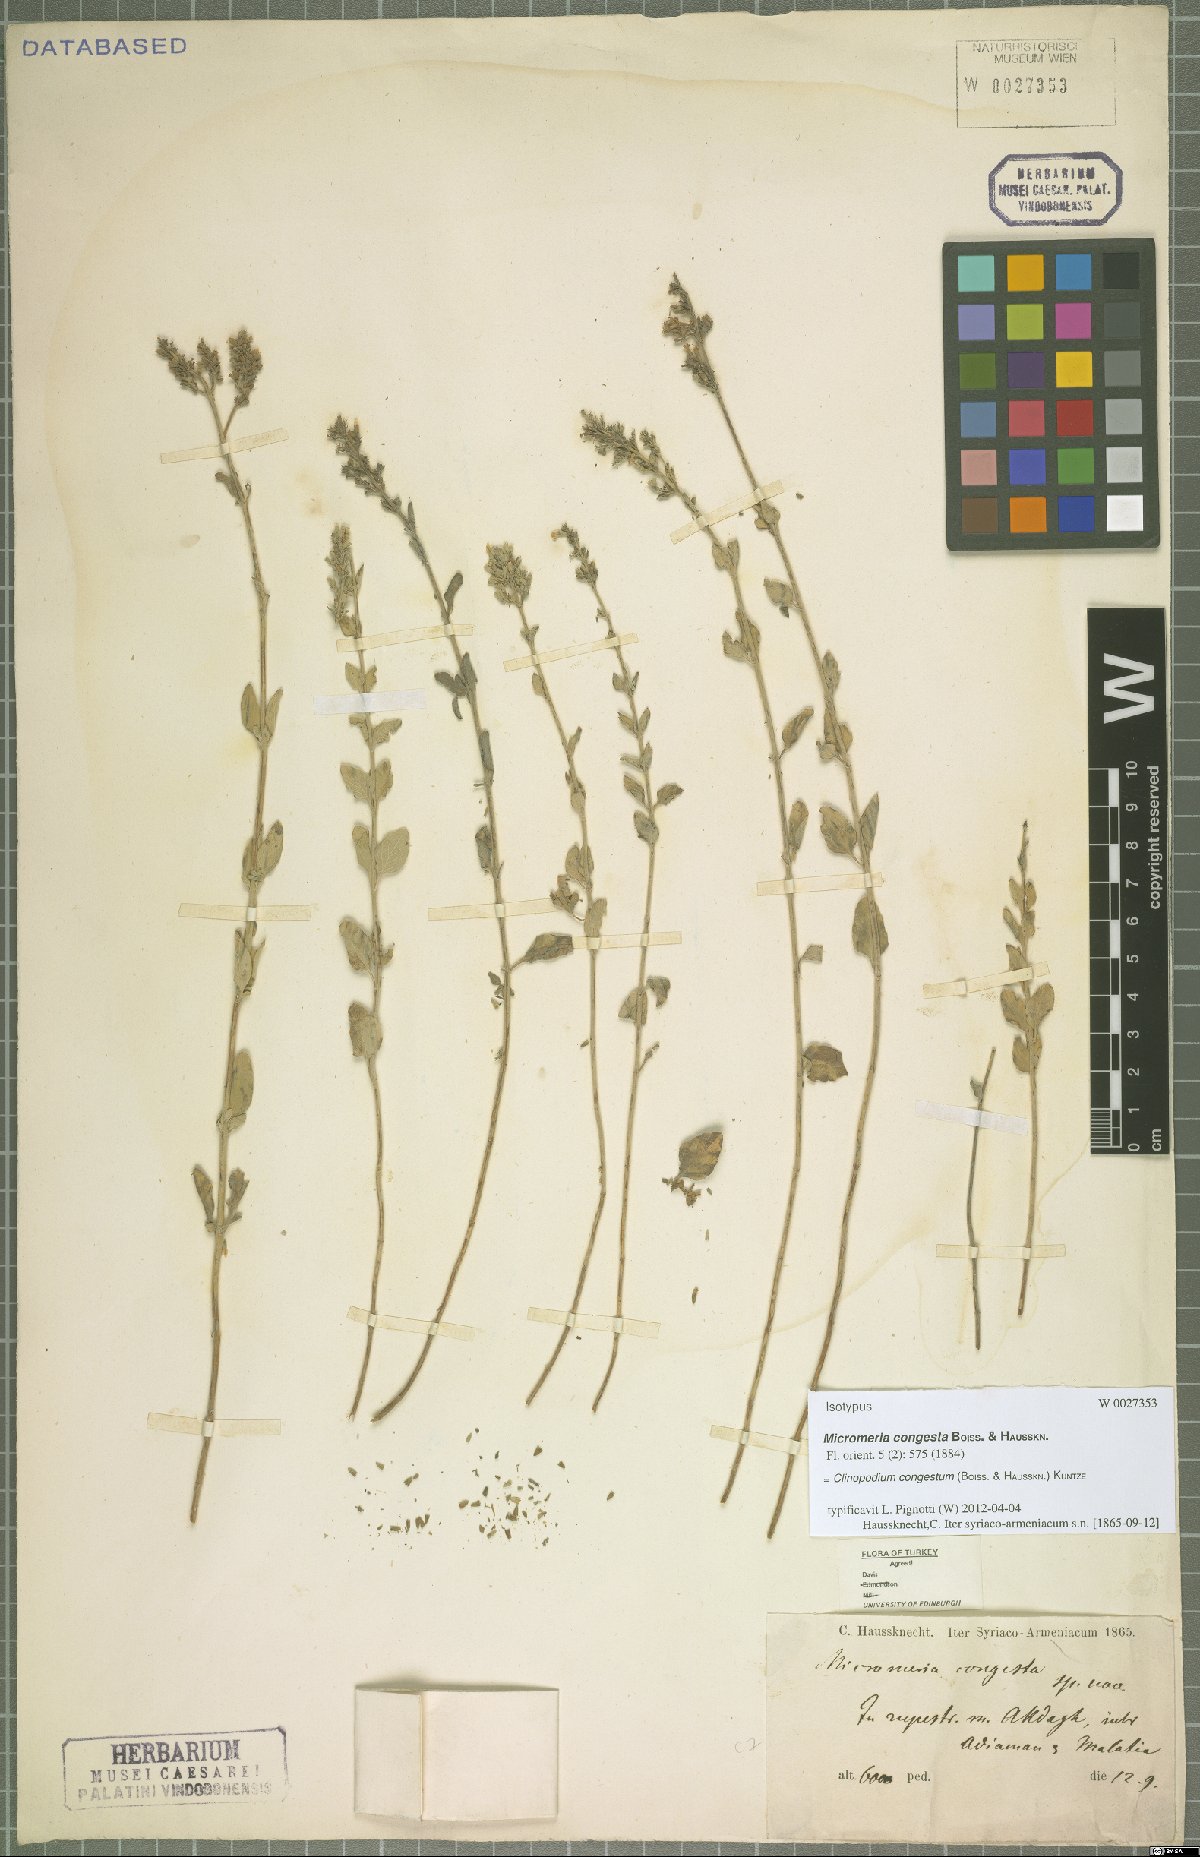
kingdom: Plantae
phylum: Tracheophyta
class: Magnoliopsida
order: Lamiales
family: Lamiaceae
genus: Clinopodium
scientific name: Clinopodium congestum
